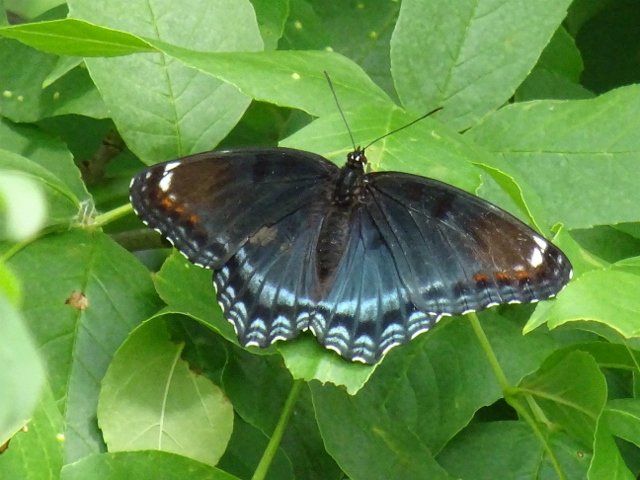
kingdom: Animalia
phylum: Arthropoda
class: Insecta
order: Lepidoptera
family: Nymphalidae
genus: Limenitis
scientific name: Limenitis astyanax
